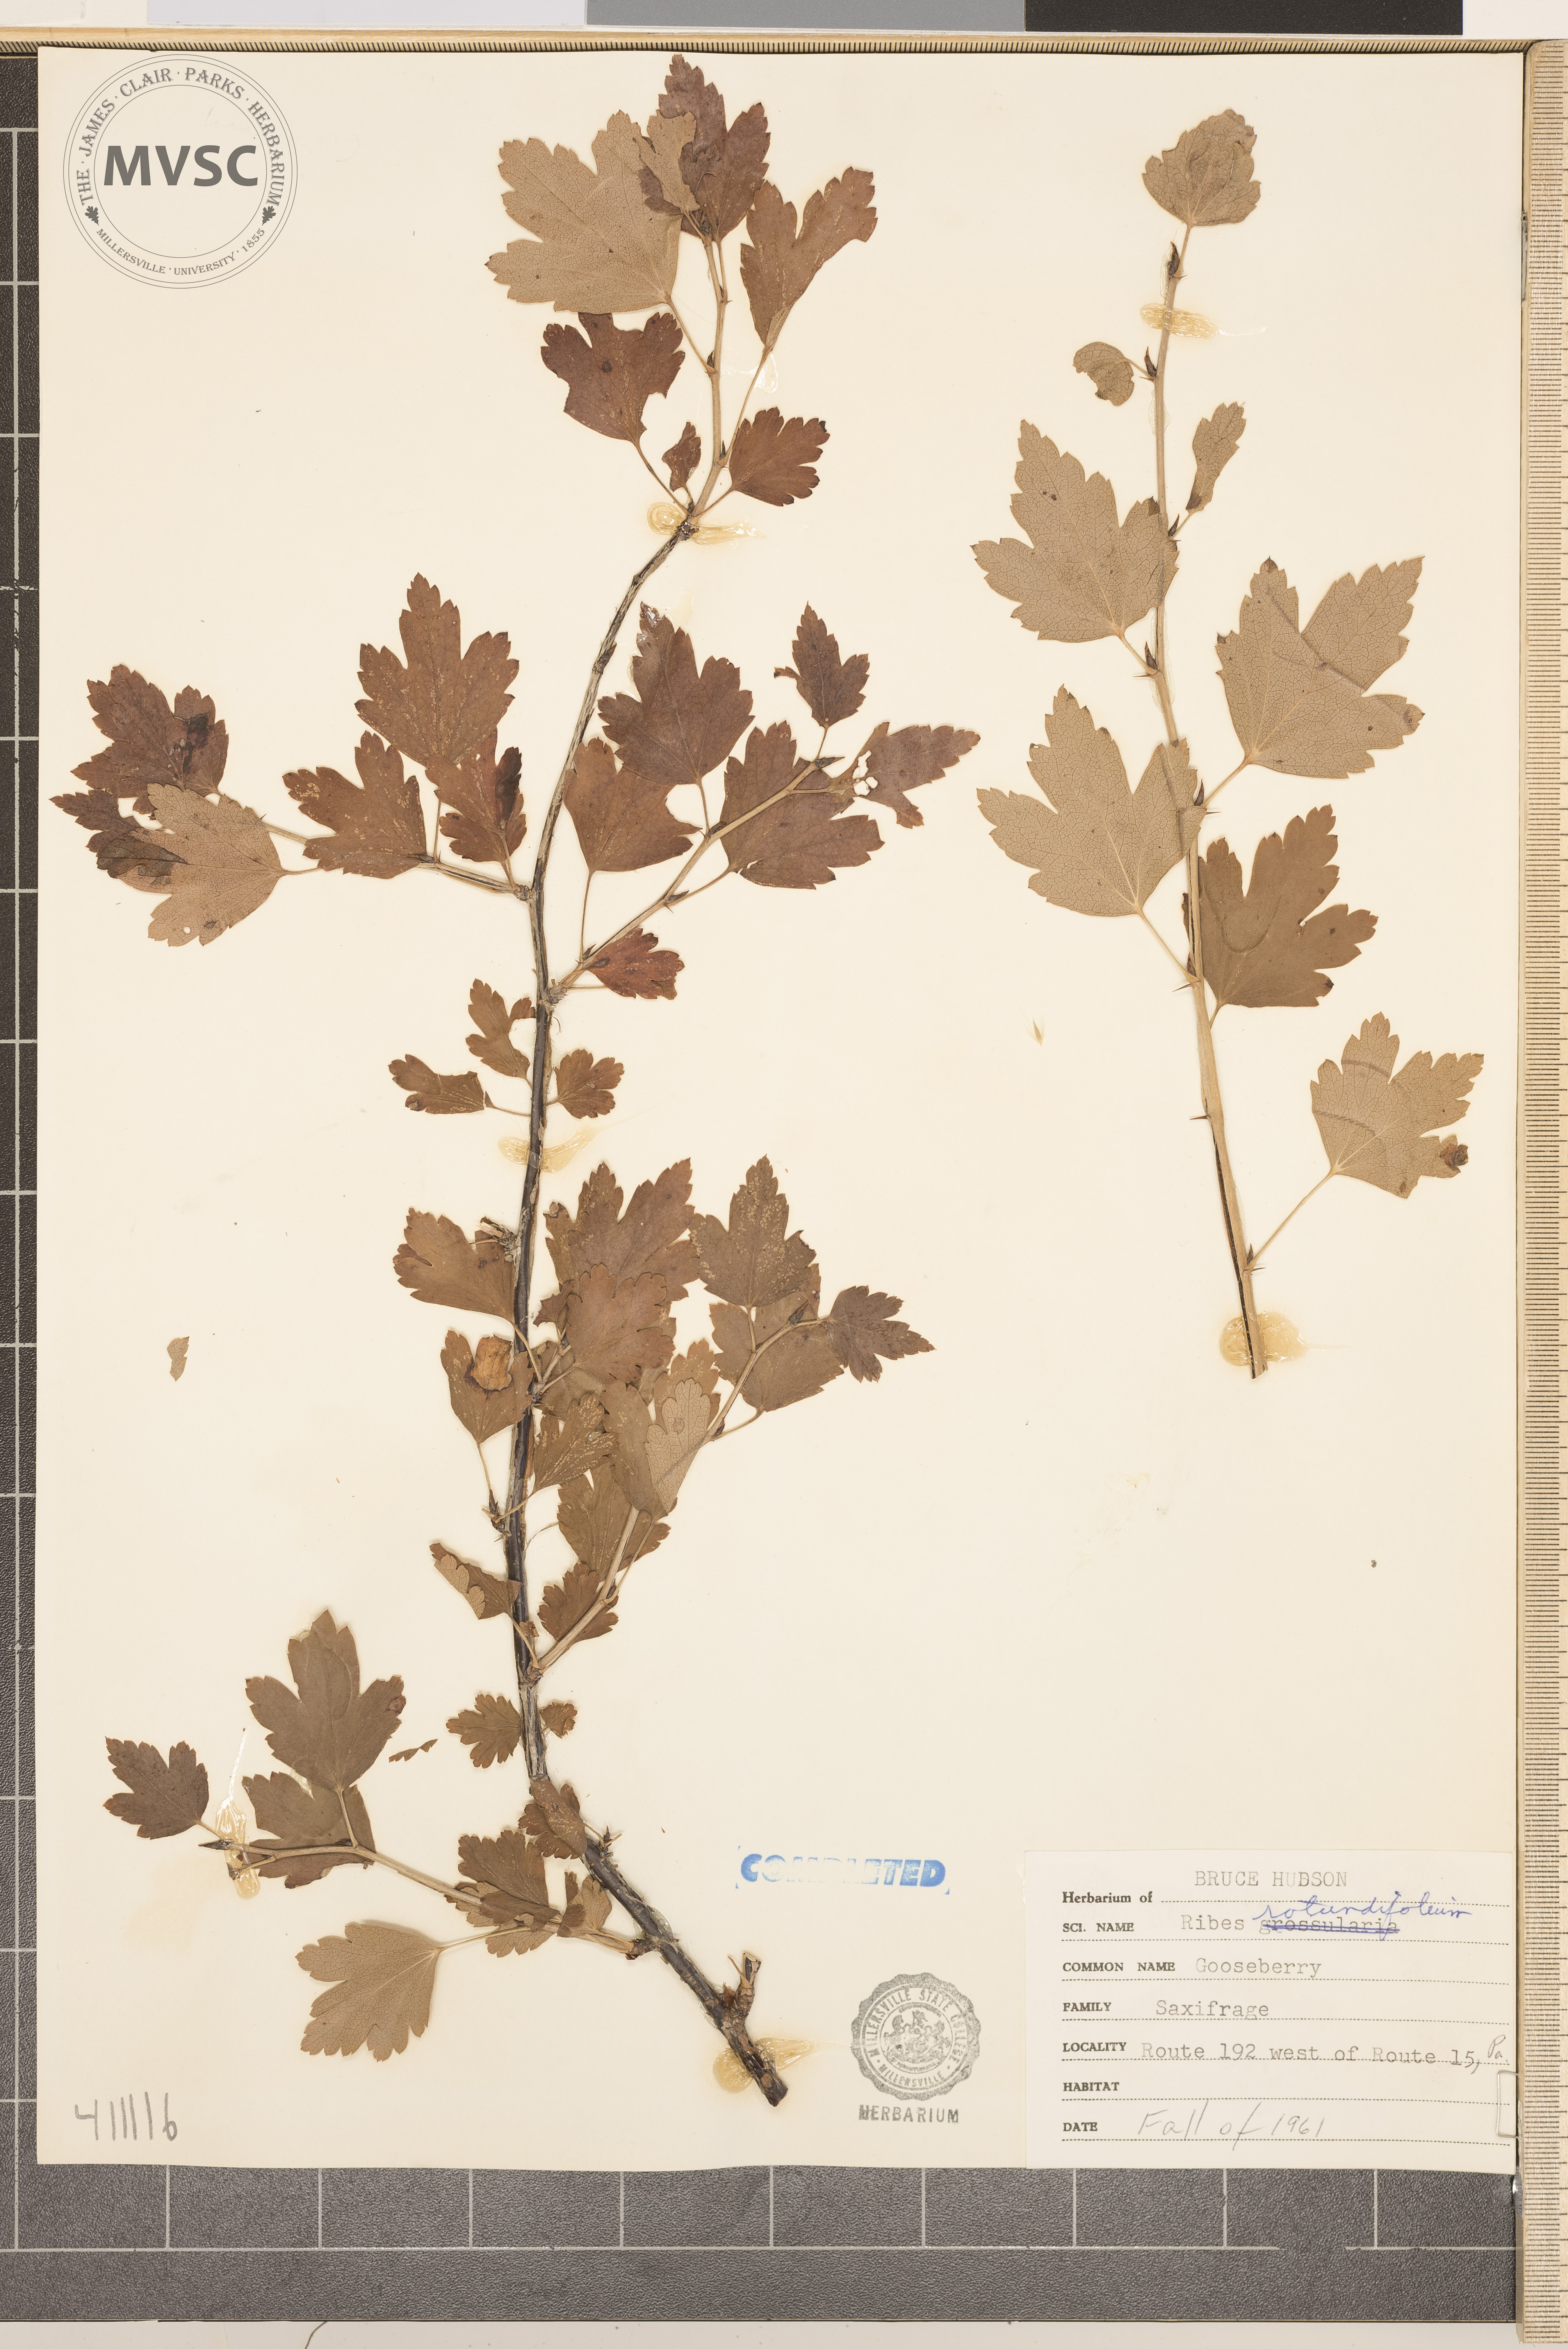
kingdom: Plantae
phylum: Tracheophyta
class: Magnoliopsida
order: Saxifragales
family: Grossulariaceae
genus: Ribes
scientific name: Ribes rotundifolium
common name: gooseberry
